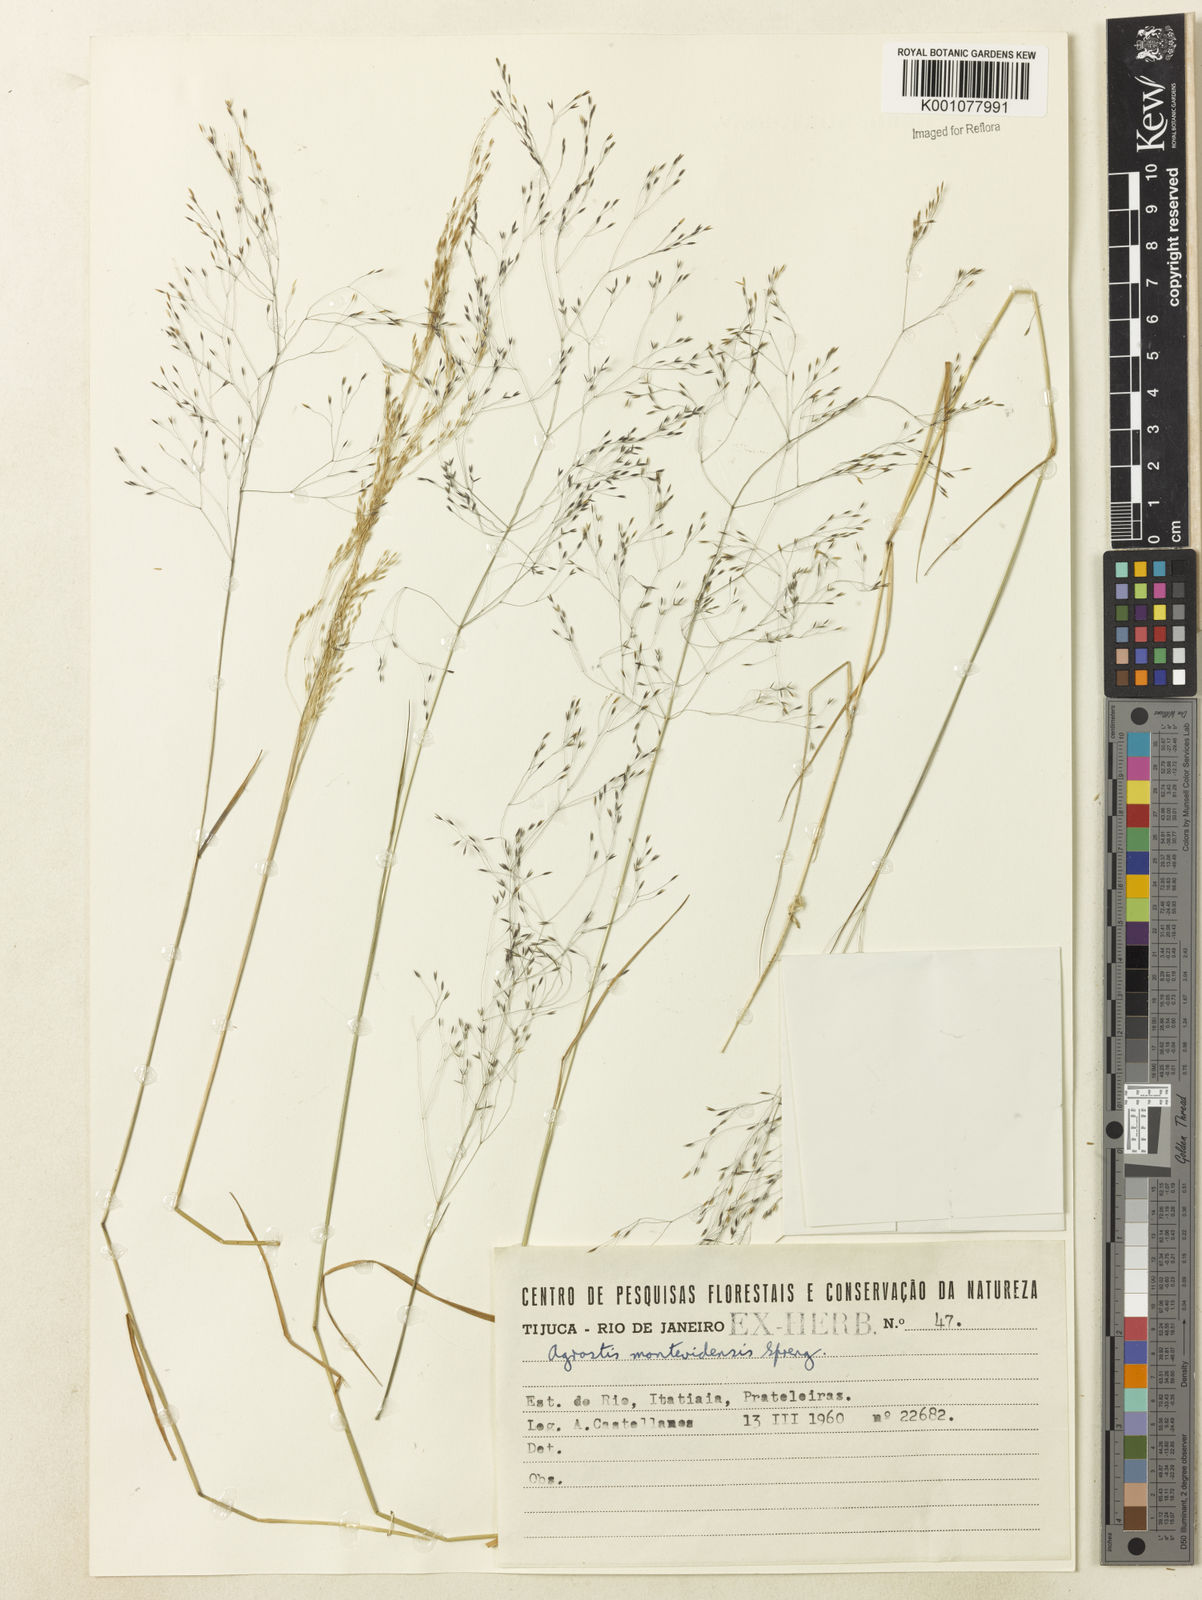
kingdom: Plantae
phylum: Tracheophyta
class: Liliopsida
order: Poales
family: Poaceae
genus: Agrostis
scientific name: Agrostis montevidensis
